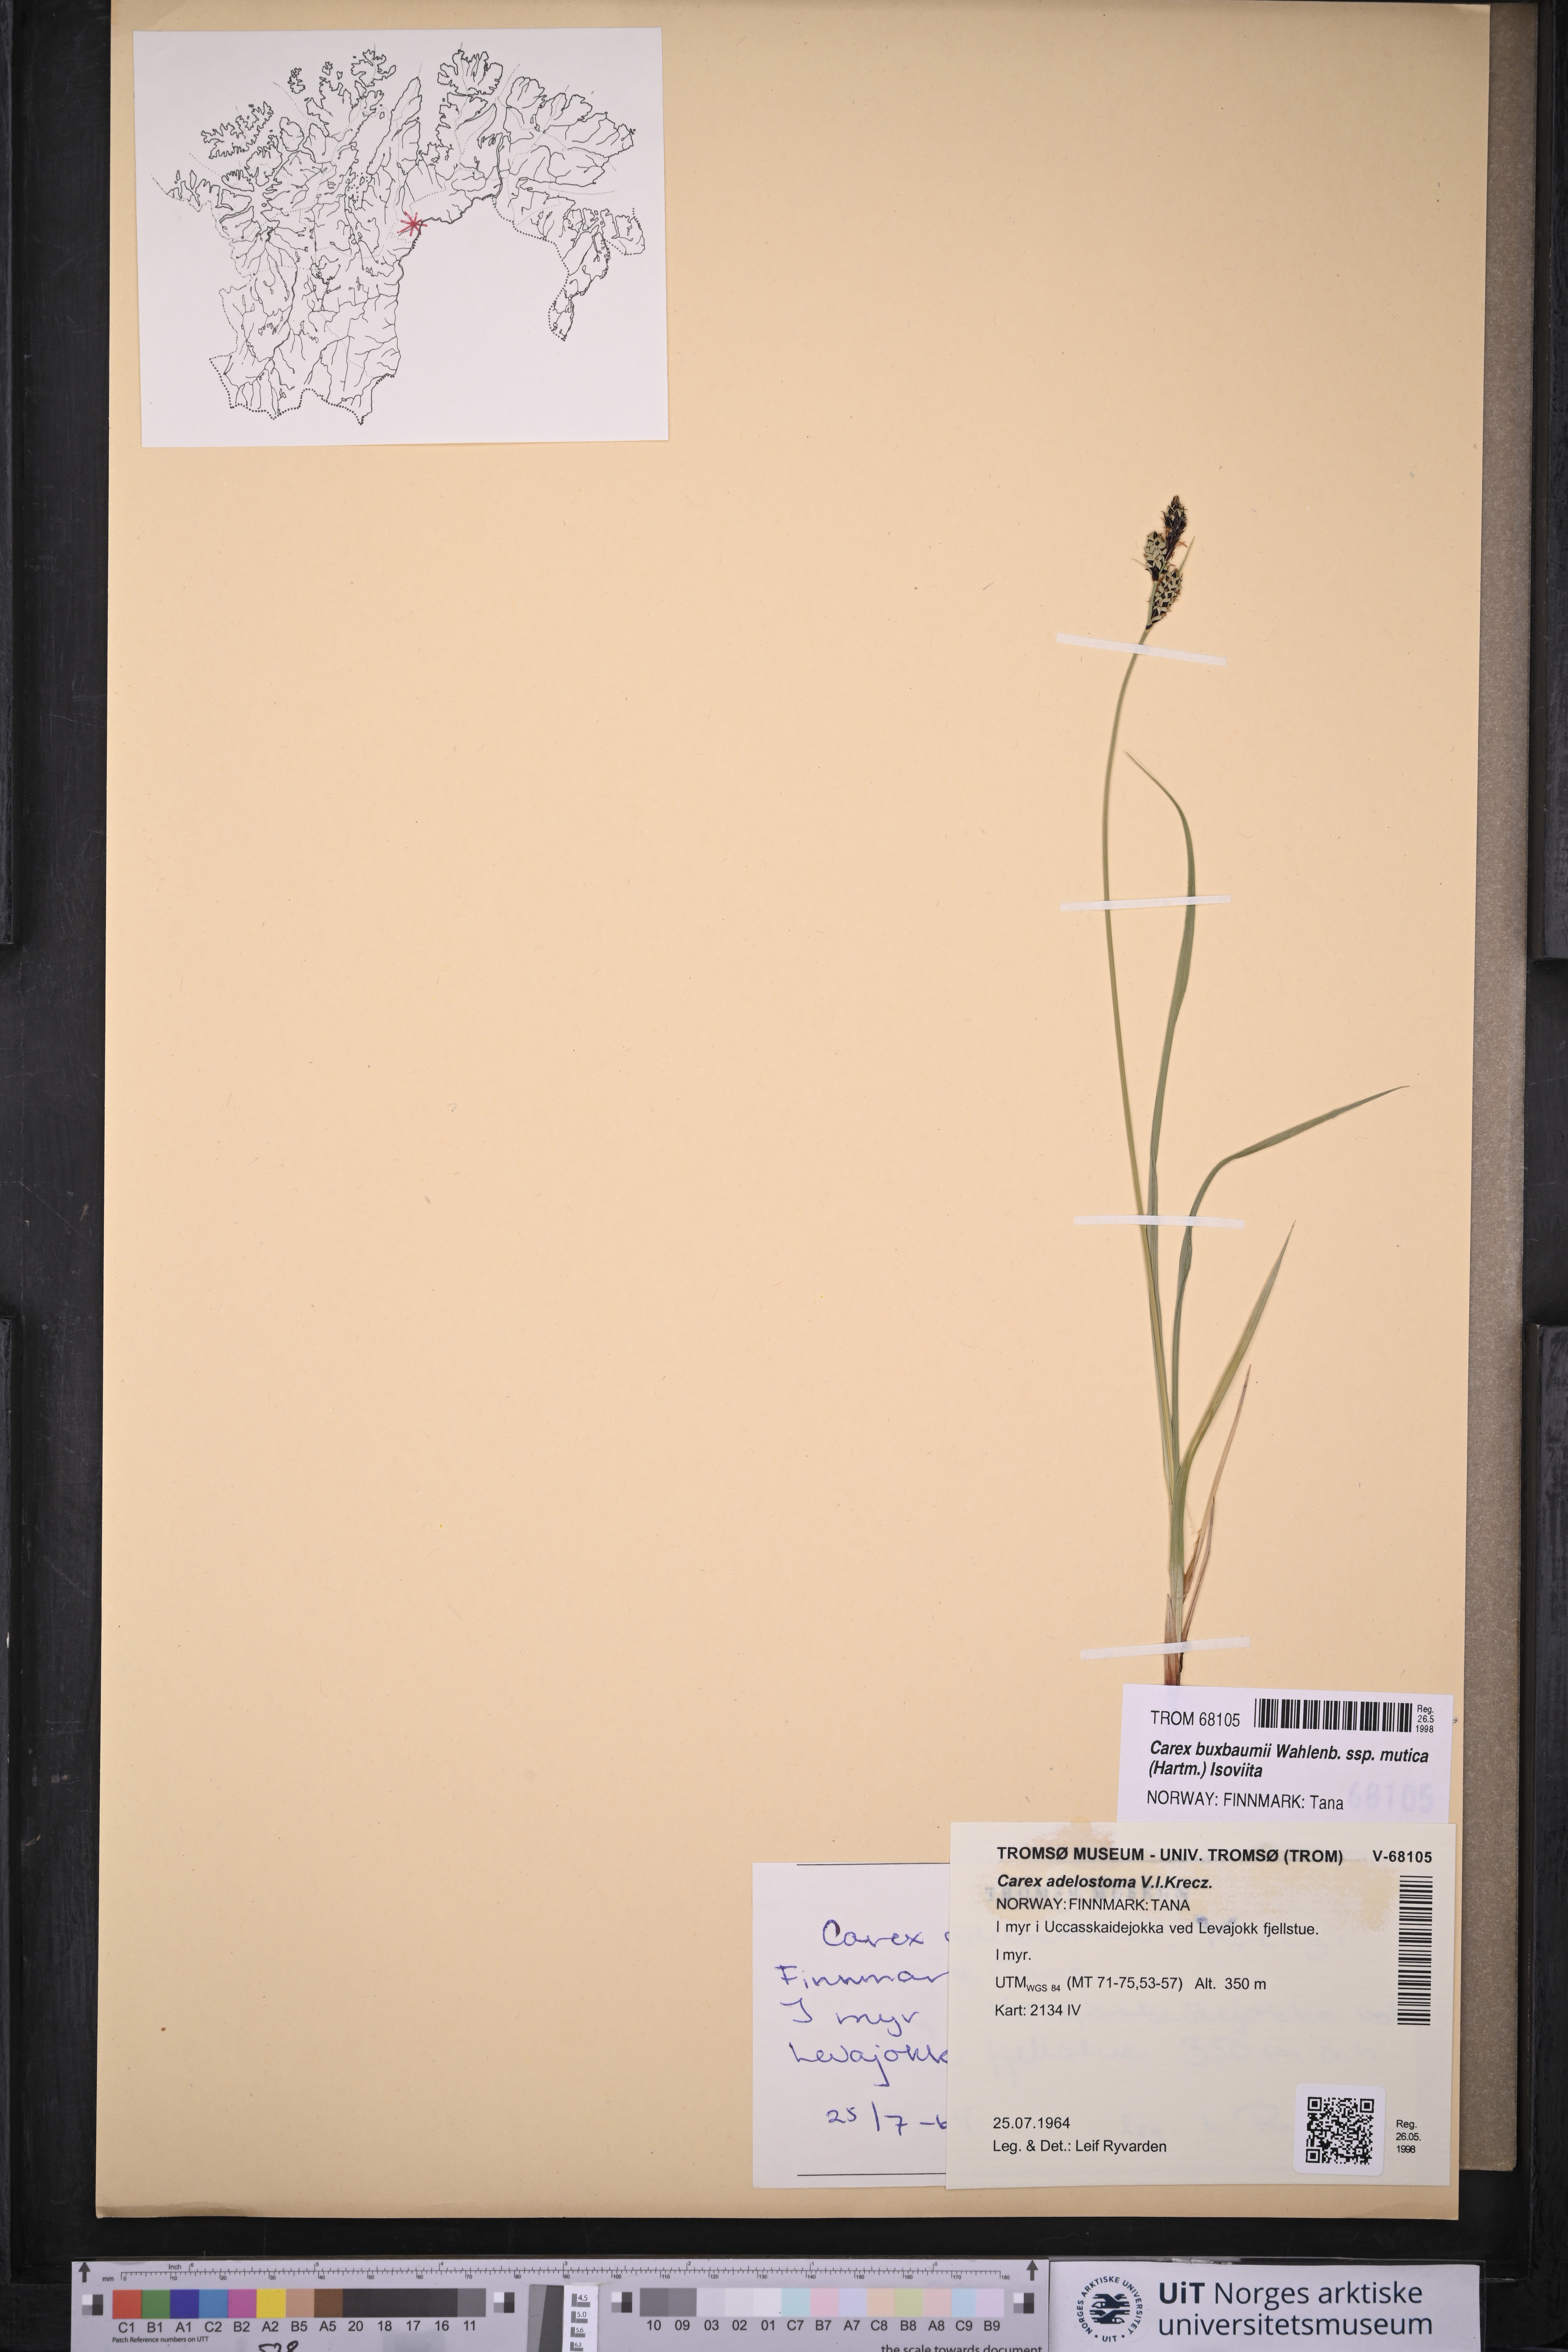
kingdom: Plantae
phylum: Tracheophyta
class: Liliopsida
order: Poales
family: Cyperaceae
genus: Carex
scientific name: Carex adelostoma
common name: Circumpolar sedge
